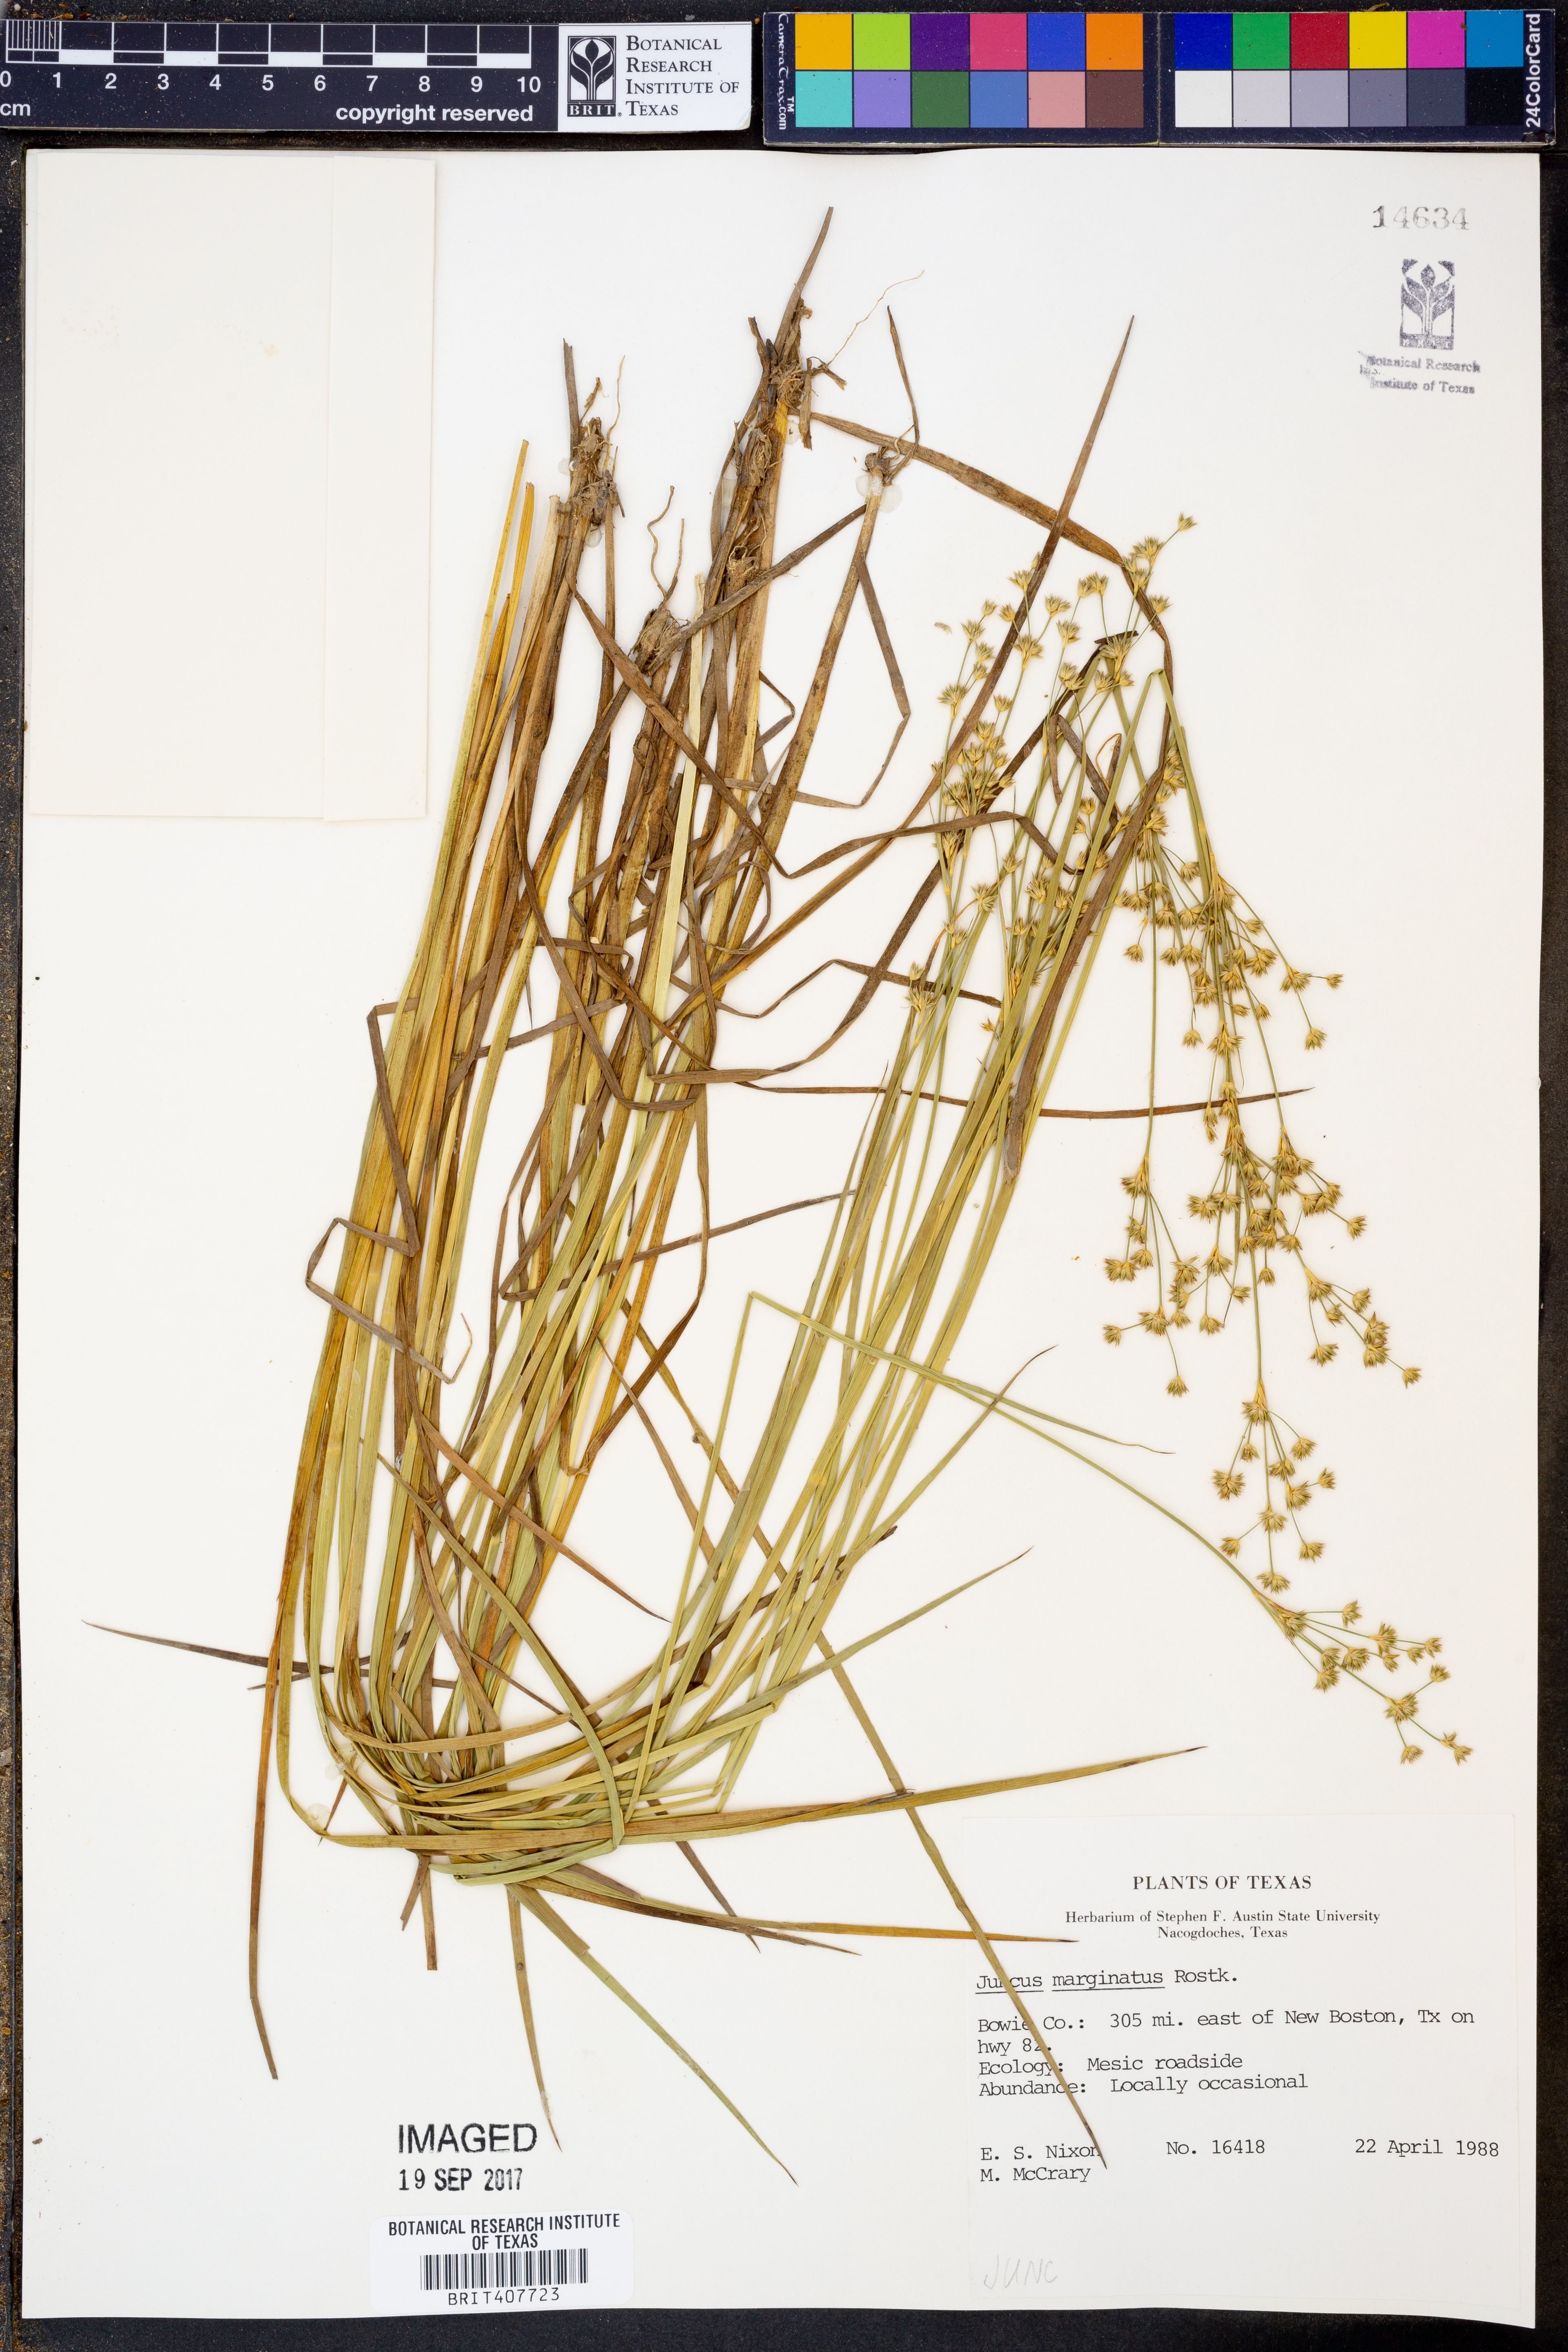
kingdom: Plantae
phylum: Tracheophyta
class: Liliopsida
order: Poales
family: Juncaceae
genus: Juncus
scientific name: Juncus marginatus
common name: Grass-leaf rush
